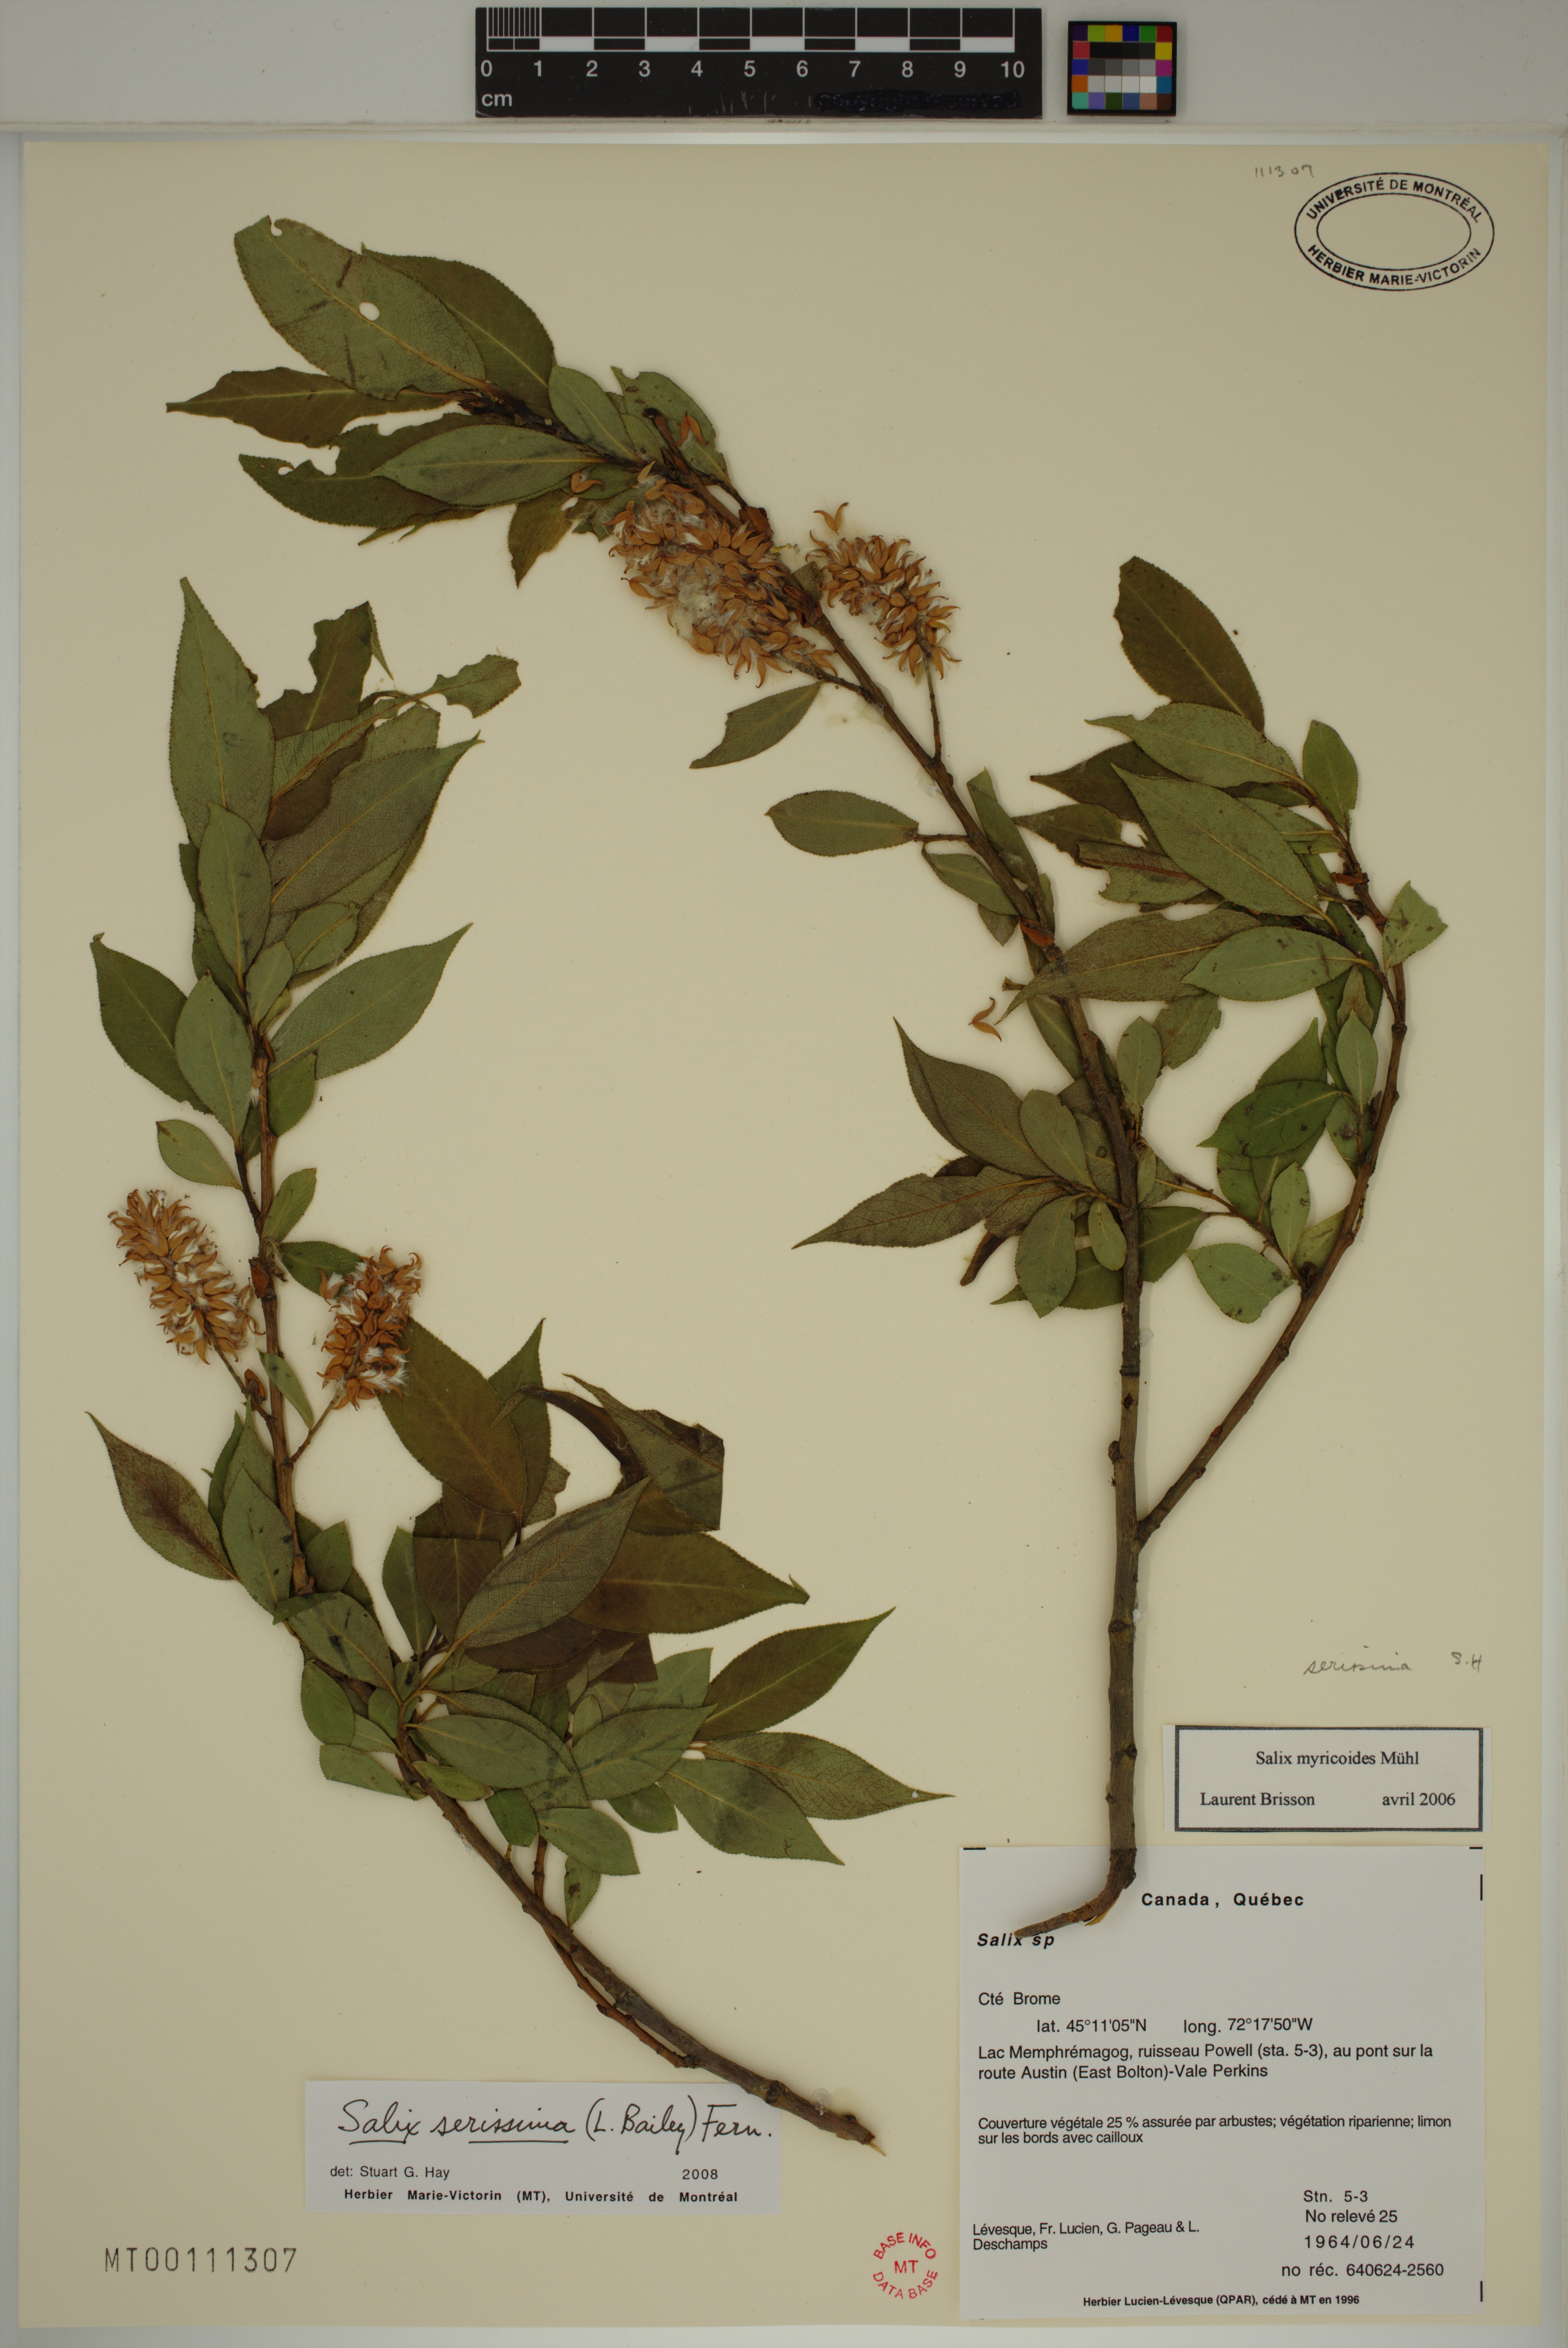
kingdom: Plantae
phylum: Tracheophyta
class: Magnoliopsida
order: Malpighiales
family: Salicaceae
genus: Salix
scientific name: Salix serissima
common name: Autumn willow
